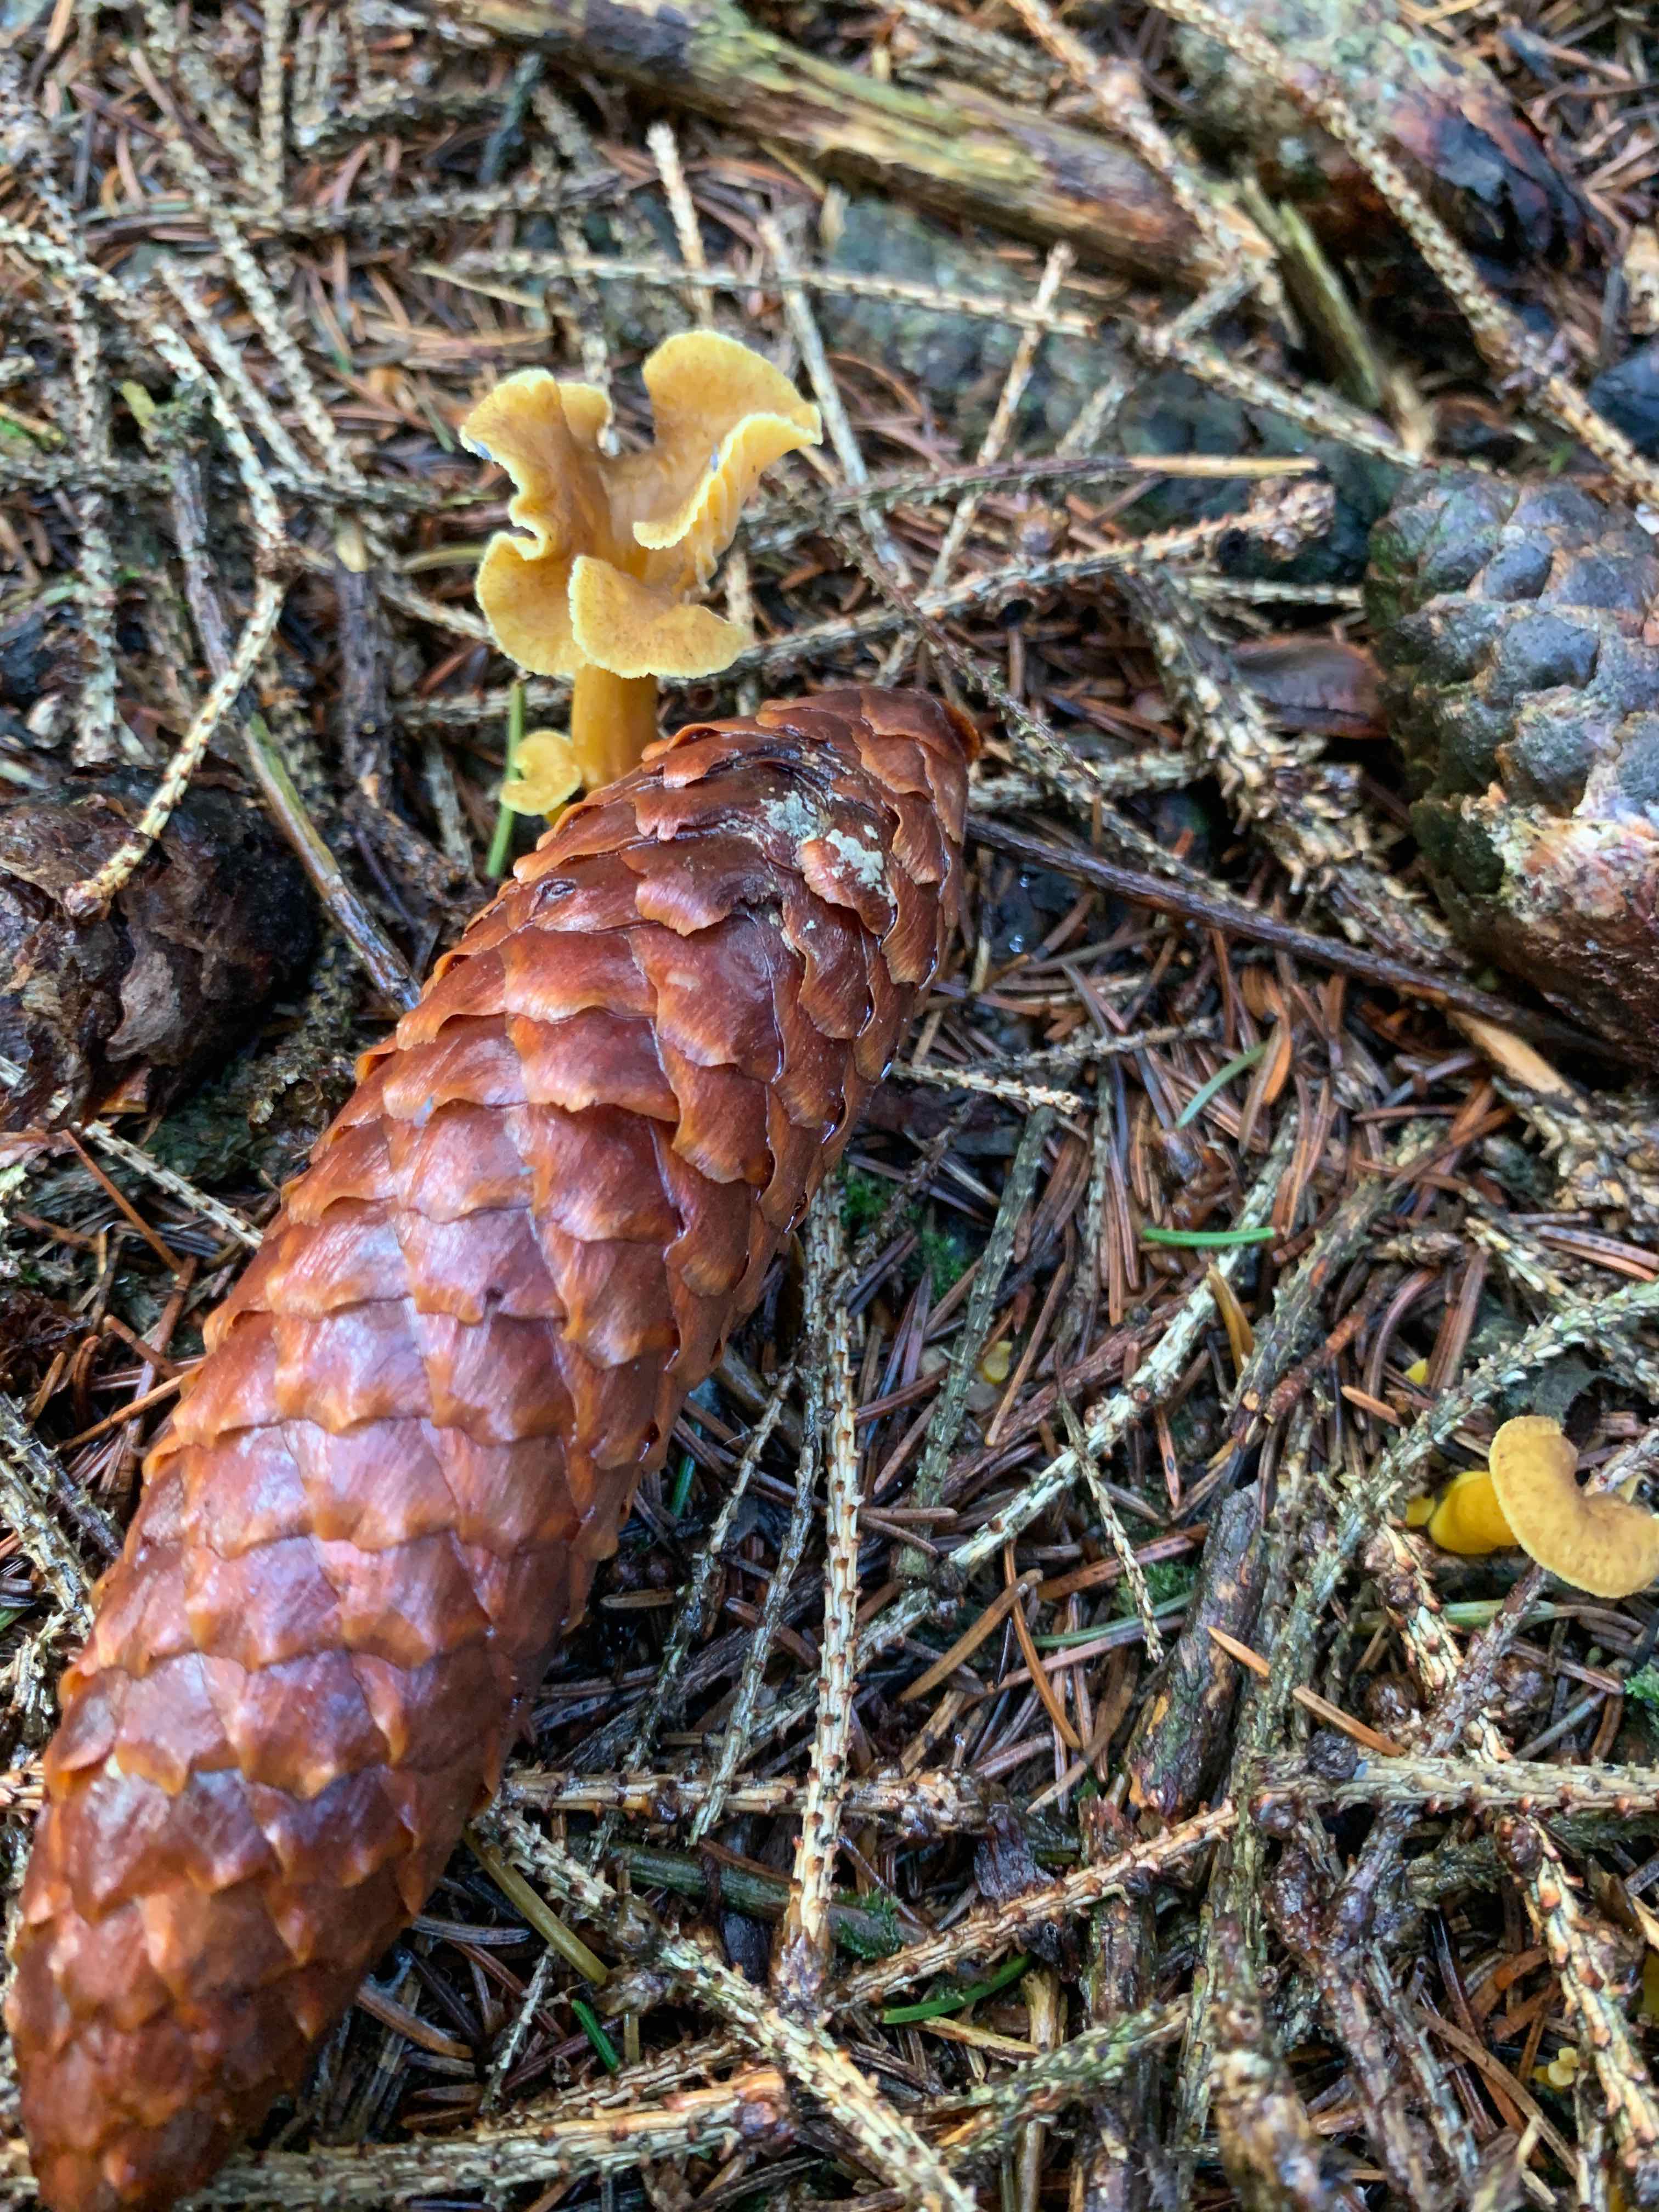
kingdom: Fungi
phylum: Basidiomycota
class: Agaricomycetes
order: Cantharellales
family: Hydnaceae
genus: Craterellus
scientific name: Craterellus tubaeformis
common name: tragt-kantarel
